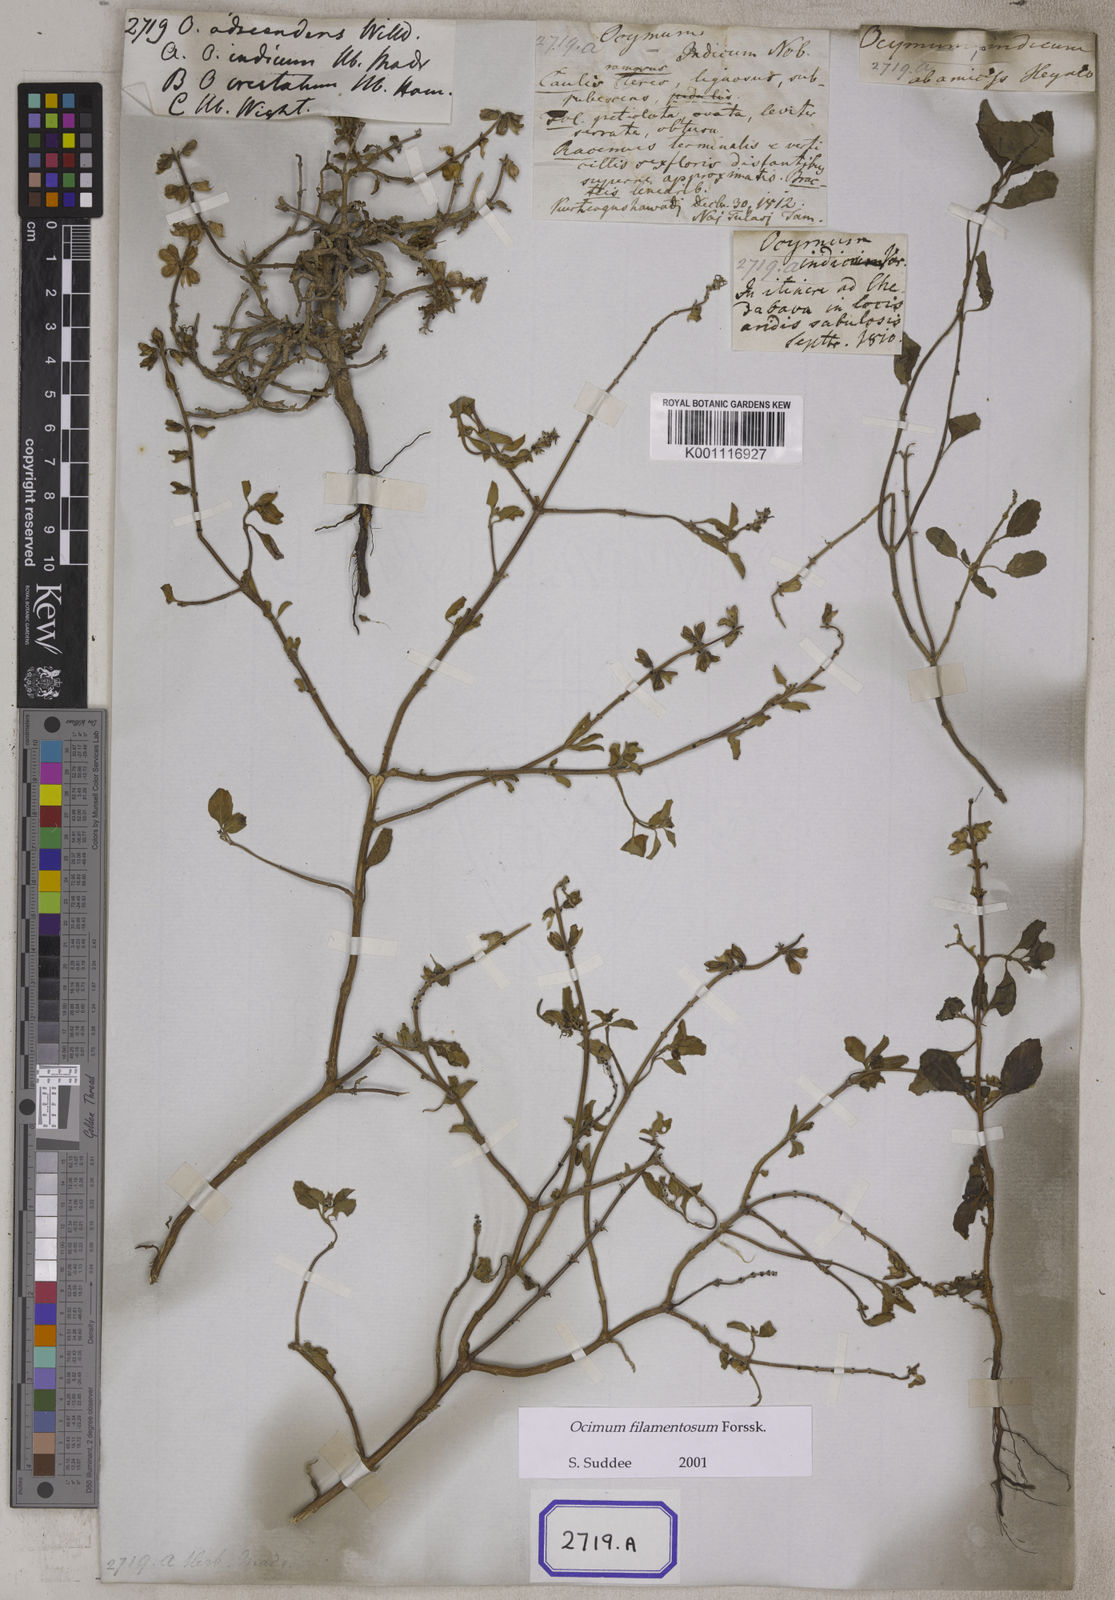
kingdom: Plantae
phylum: Tracheophyta
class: Magnoliopsida
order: Lamiales
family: Lamiaceae
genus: Ocimum
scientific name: Ocimum filamentosum
